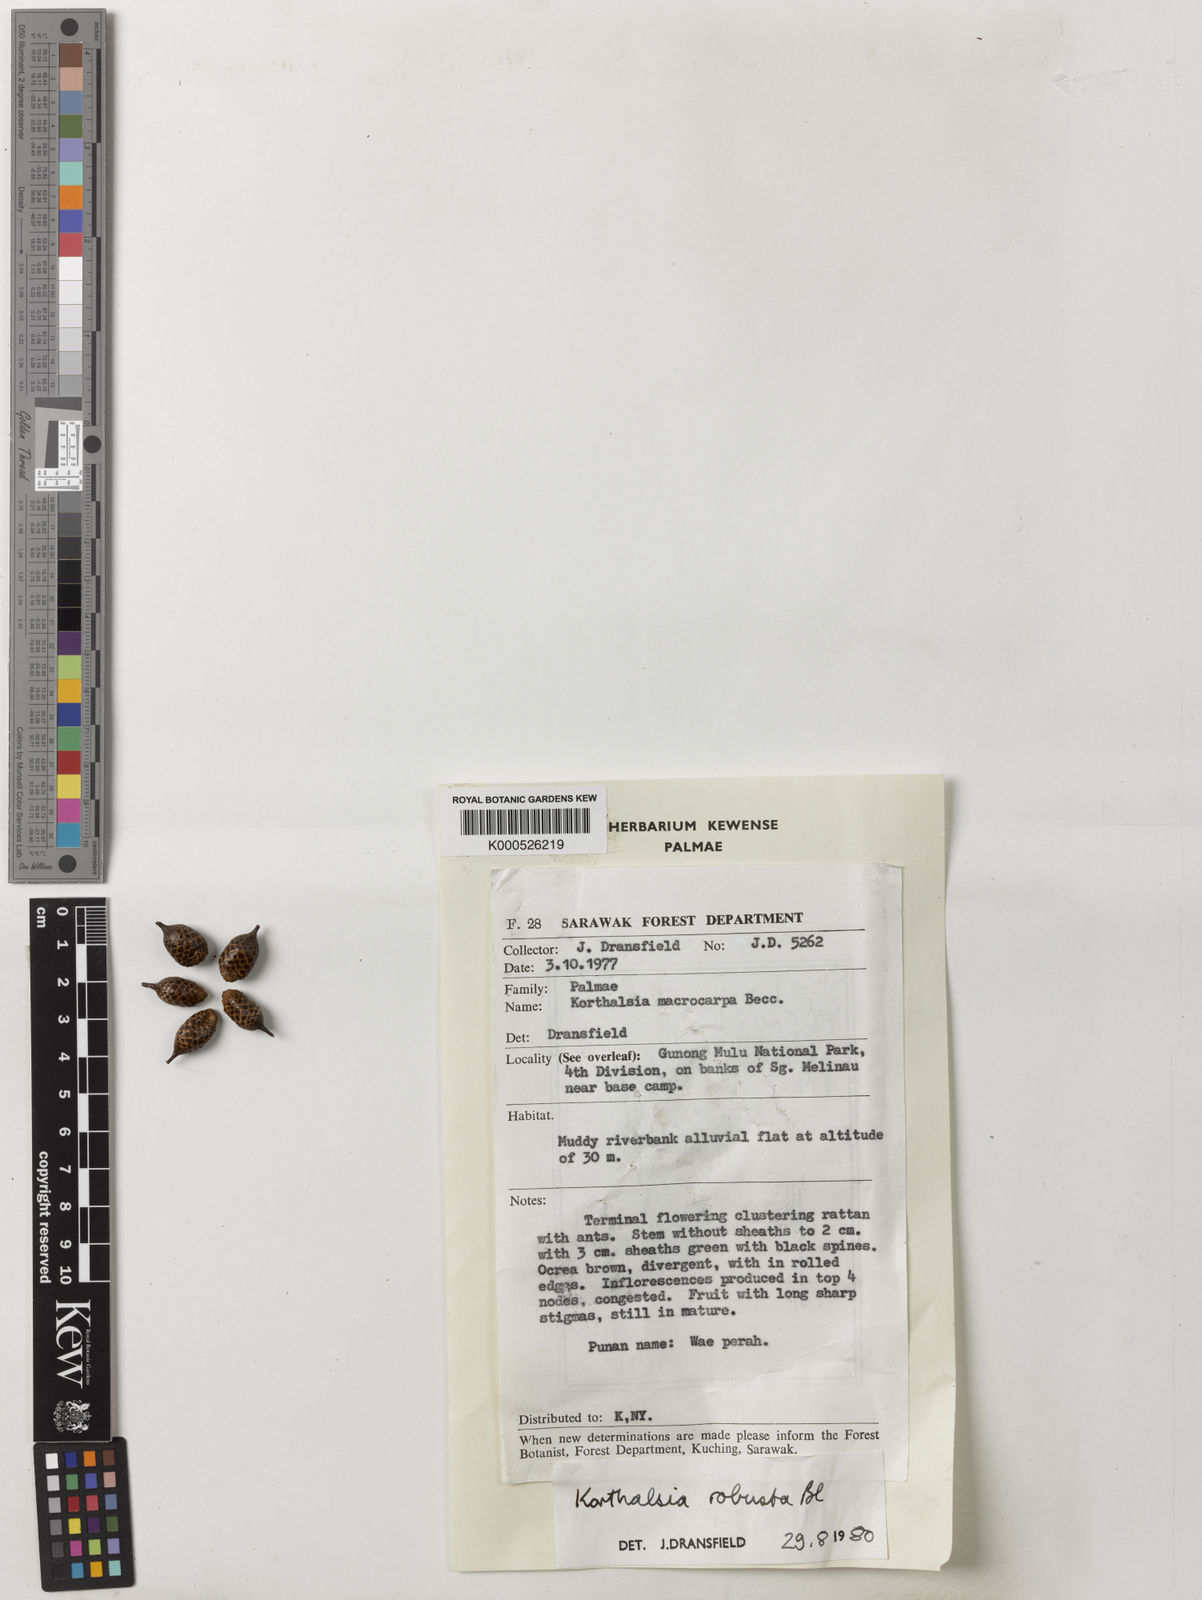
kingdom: Plantae
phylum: Tracheophyta
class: Liliopsida
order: Arecales
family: Arecaceae
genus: Korthalsia
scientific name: Korthalsia robusta
